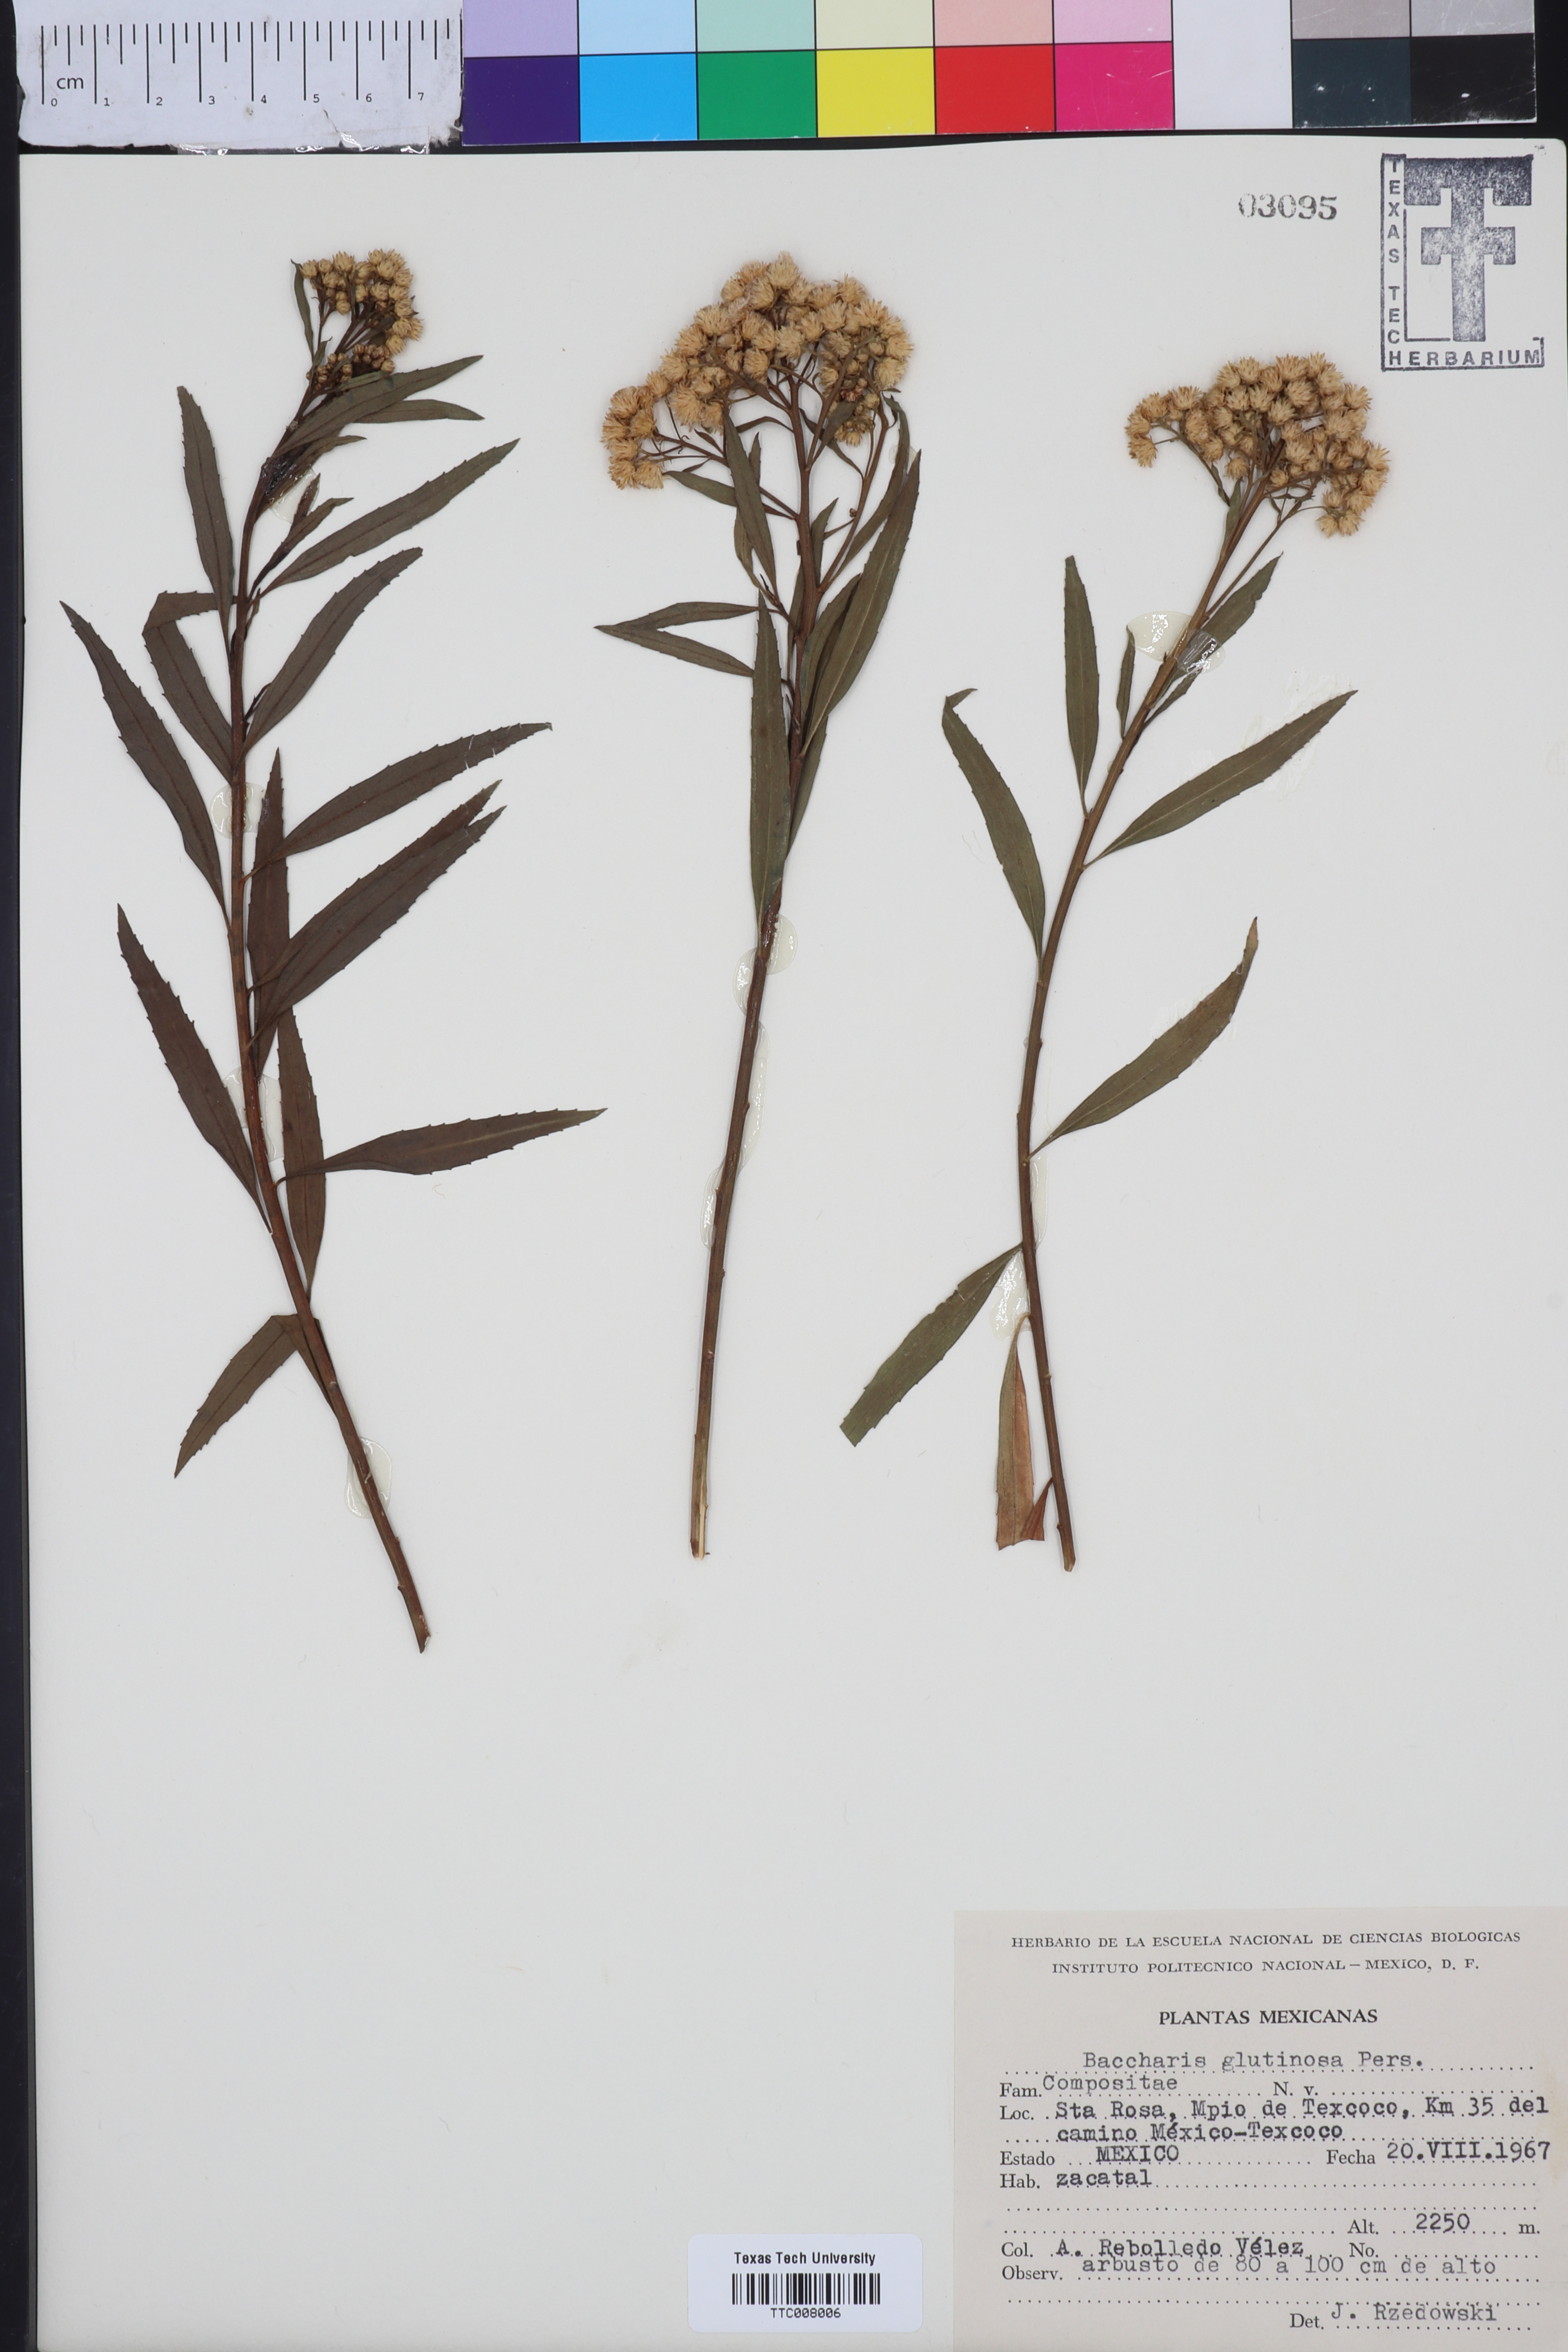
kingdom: Plantae
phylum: Tracheophyta
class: Magnoliopsida
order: Asterales
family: Asteraceae
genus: Baccharis
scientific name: Baccharis glutinosa
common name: Saltmarsh baccharis
